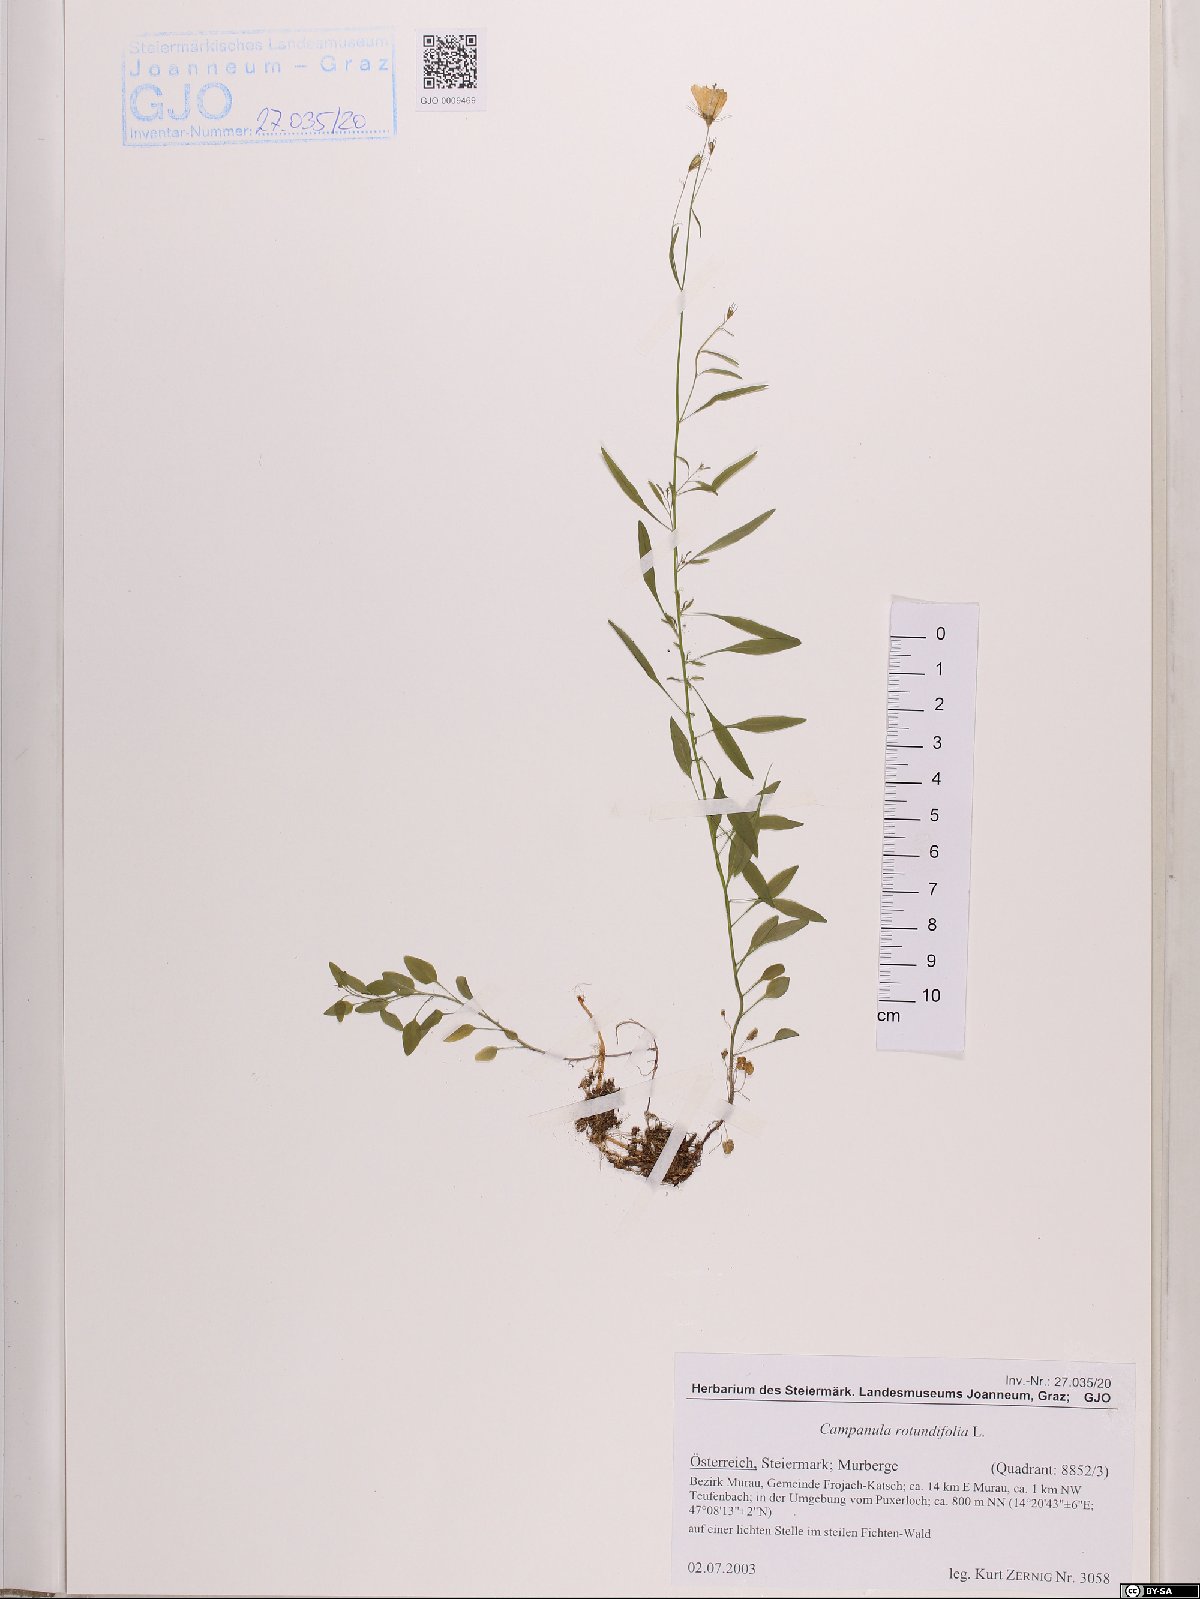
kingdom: Plantae
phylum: Tracheophyta
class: Magnoliopsida
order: Asterales
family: Campanulaceae
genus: Campanula
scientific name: Campanula rotundifolia
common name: Harebell
